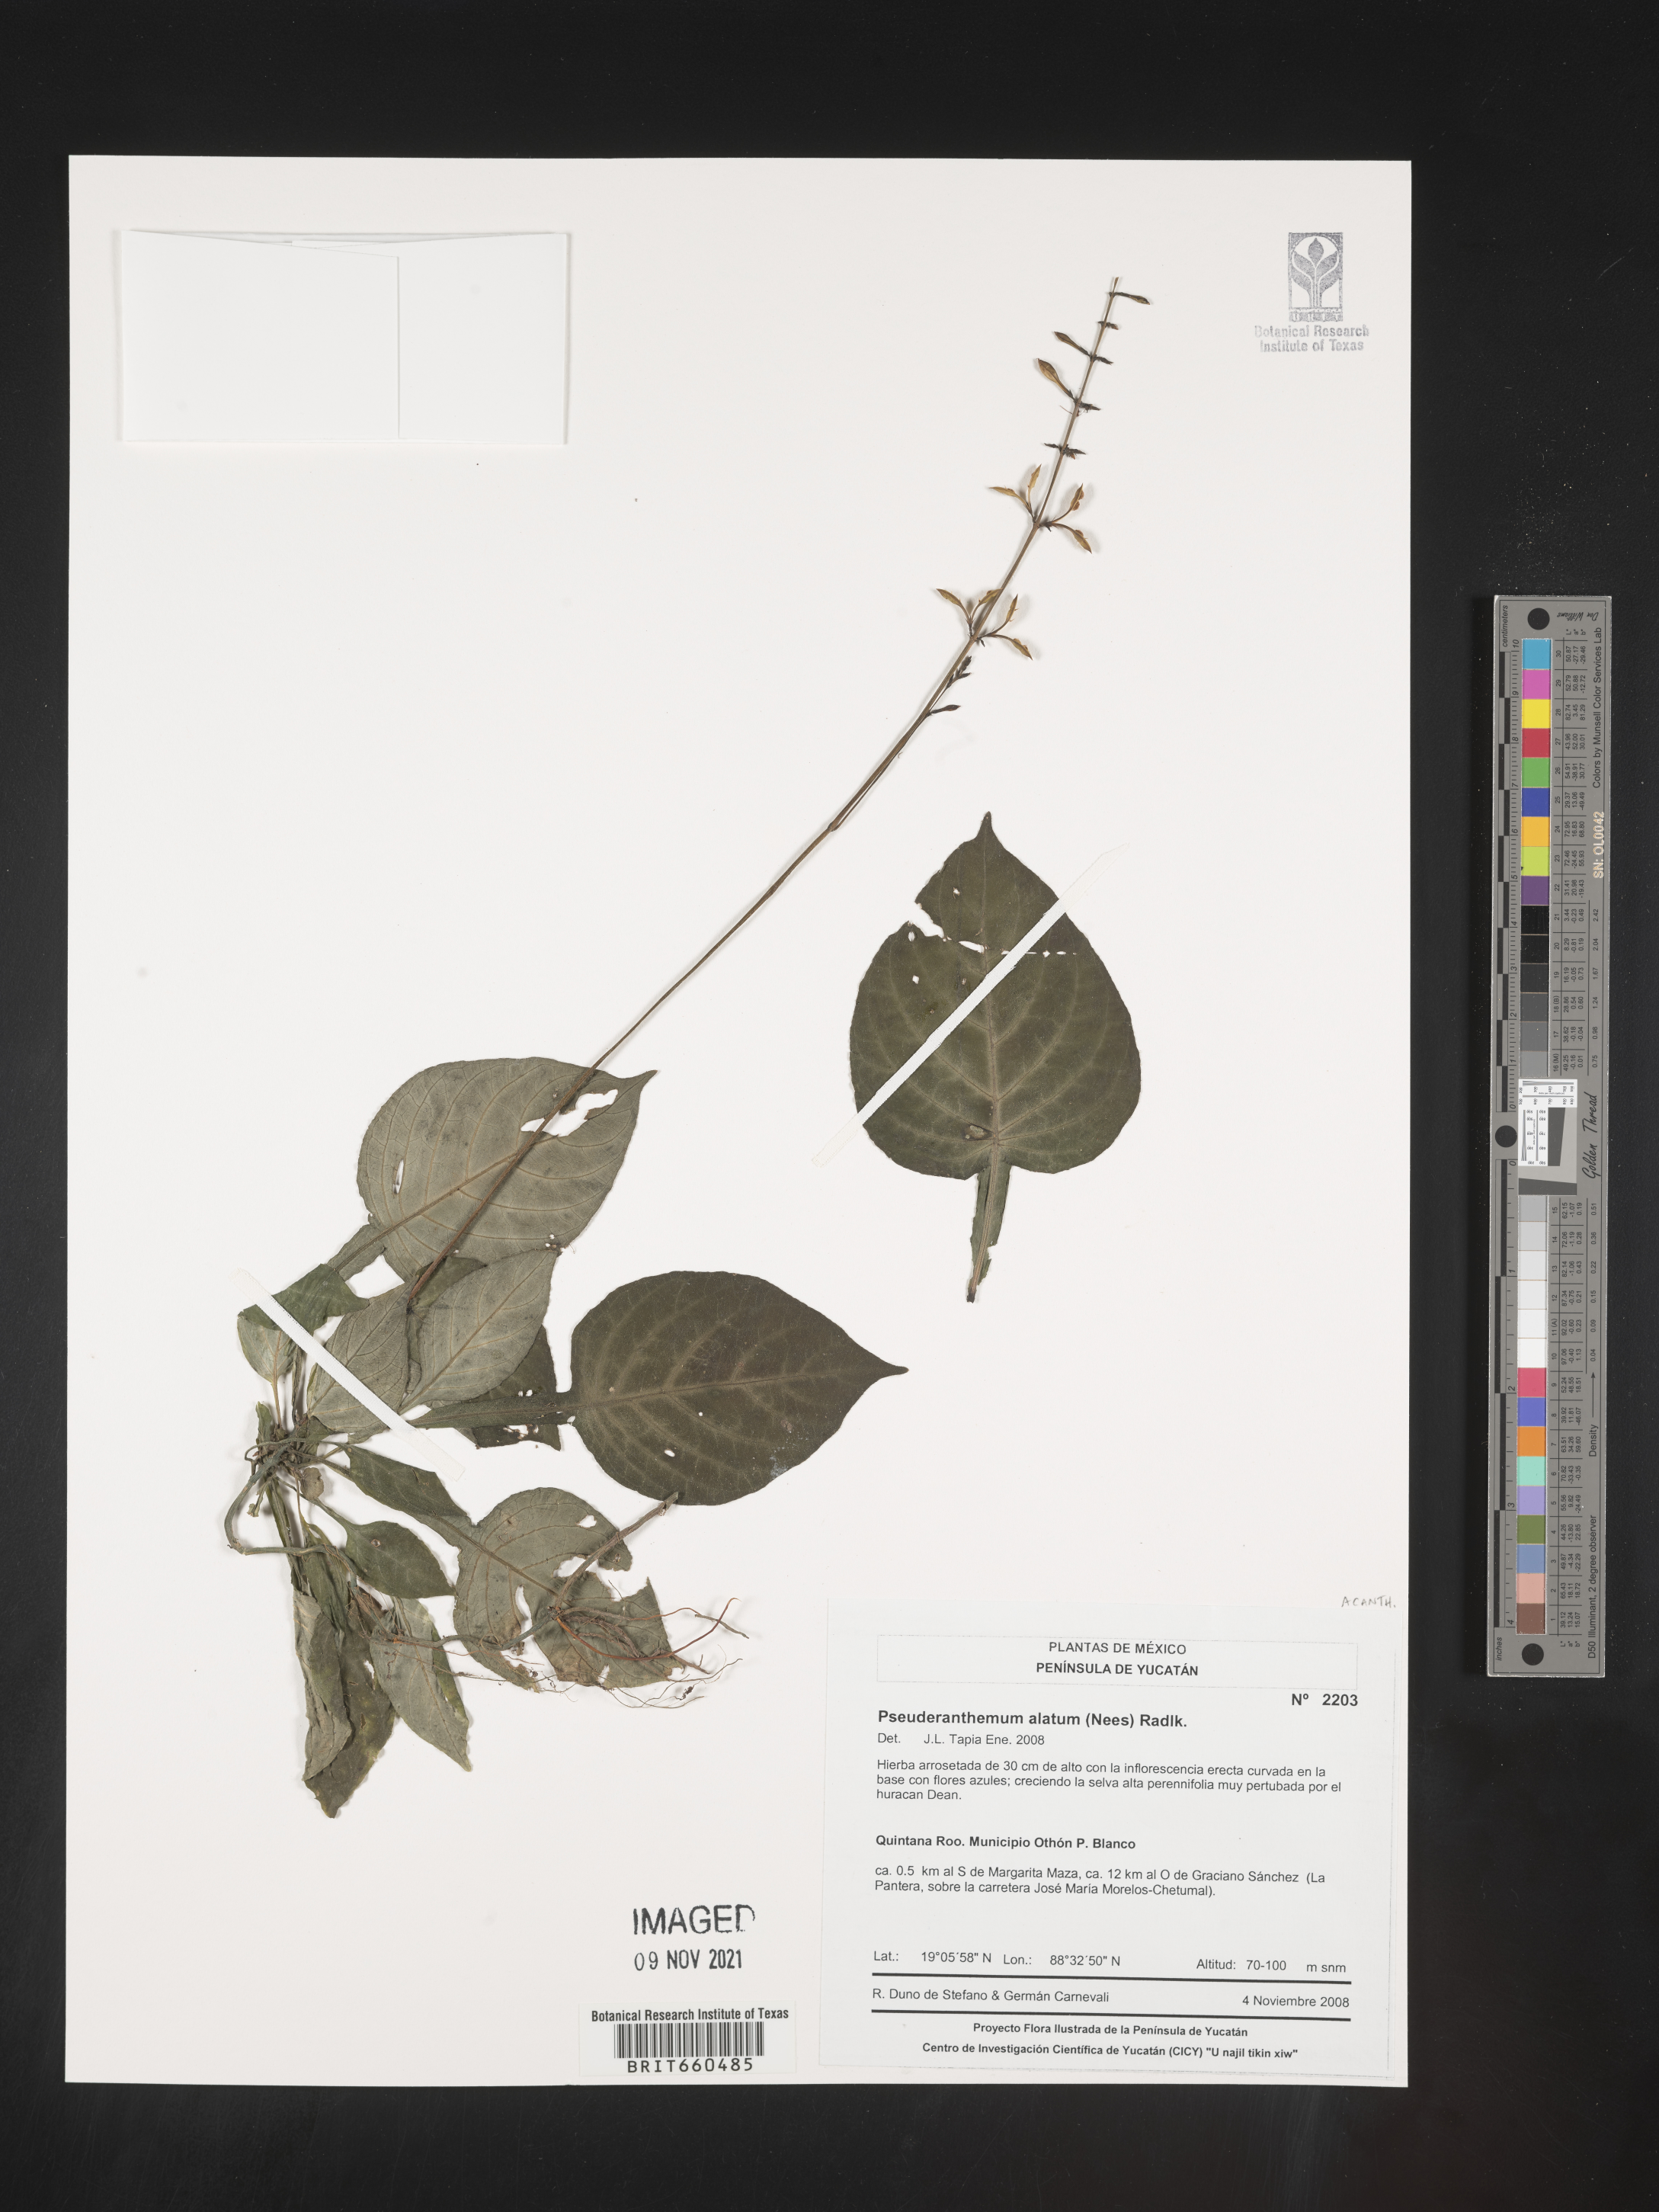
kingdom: Plantae
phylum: Tracheophyta
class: Magnoliopsida
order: Lamiales
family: Acanthaceae
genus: Pseuderanthemum
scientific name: Pseuderanthemum
